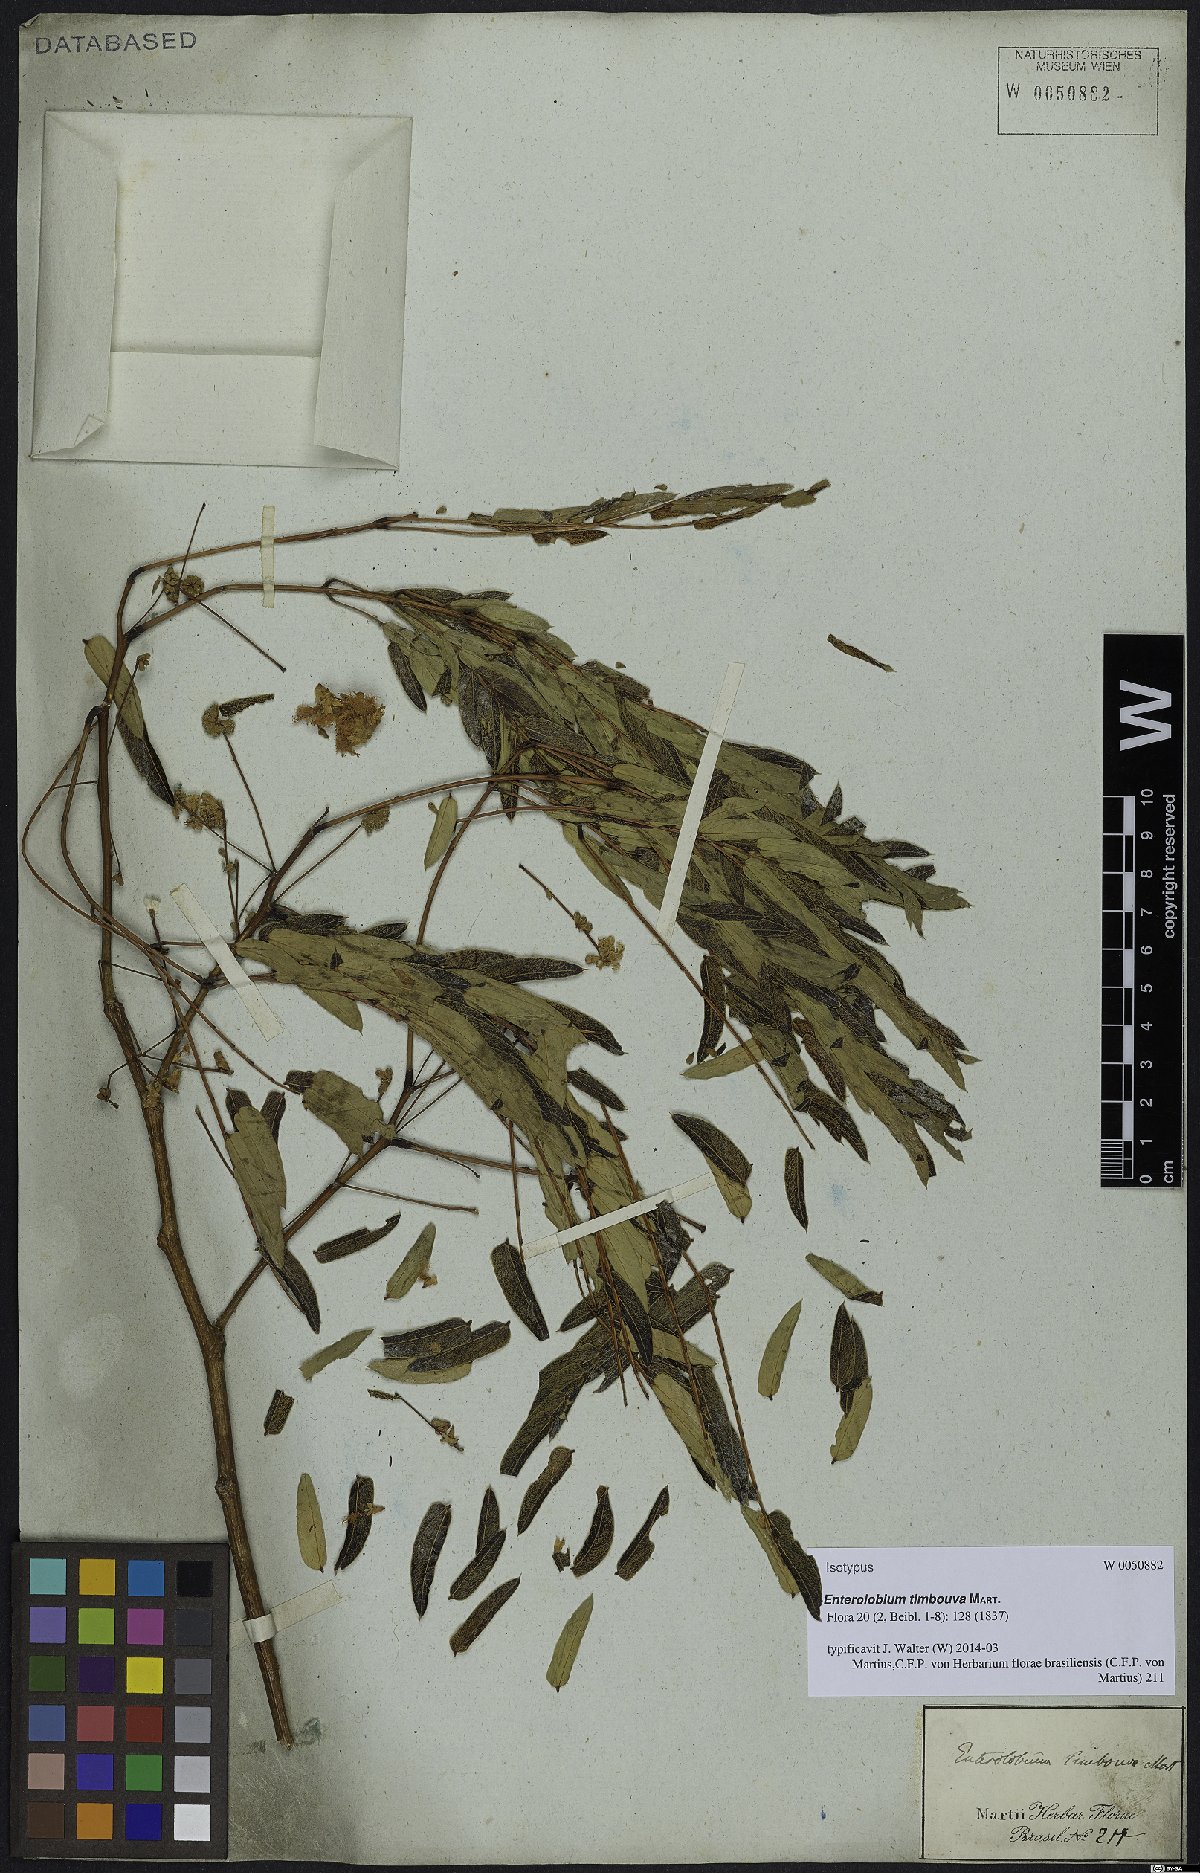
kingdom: Plantae
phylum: Tracheophyta
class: Magnoliopsida
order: Fabales
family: Fabaceae
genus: Enterolobium
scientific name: Enterolobium timbouva
